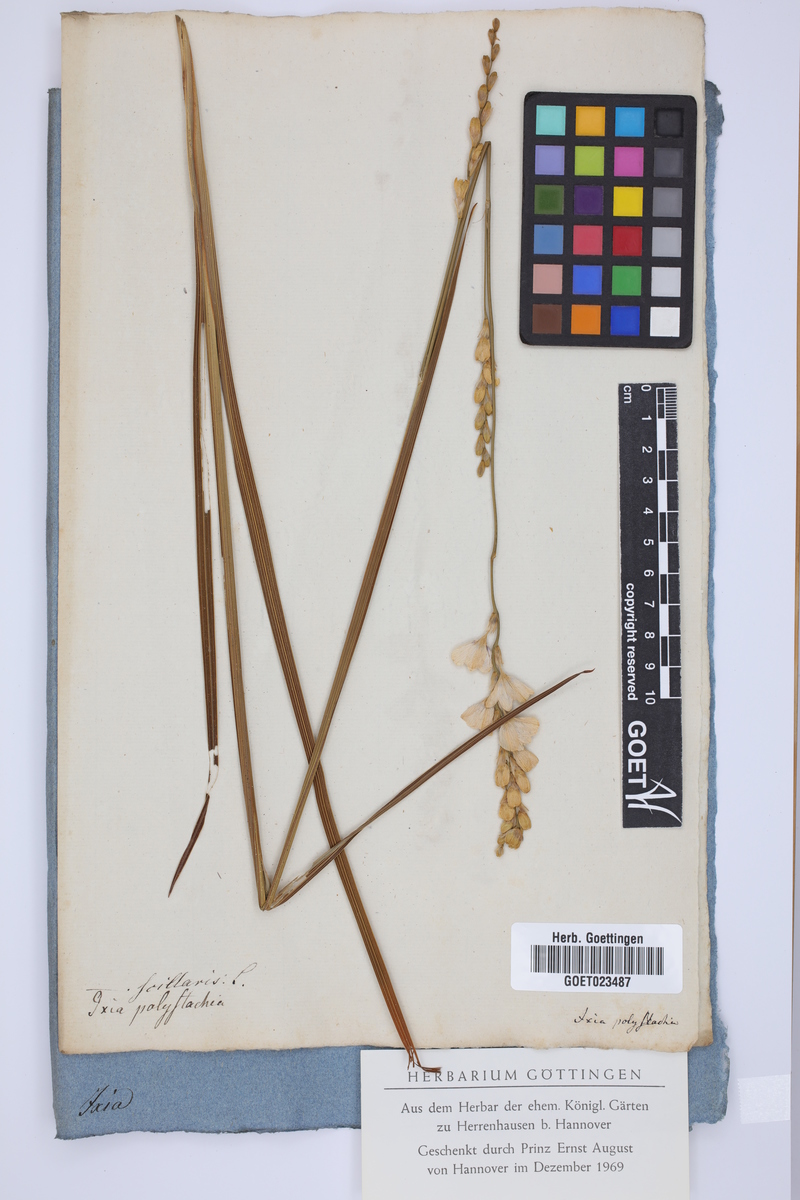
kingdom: Plantae
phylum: Tracheophyta
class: Liliopsida
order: Asparagales
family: Iridaceae
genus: Ixia
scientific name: Ixia polystachya
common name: White-and-yellow-flower cornlily
